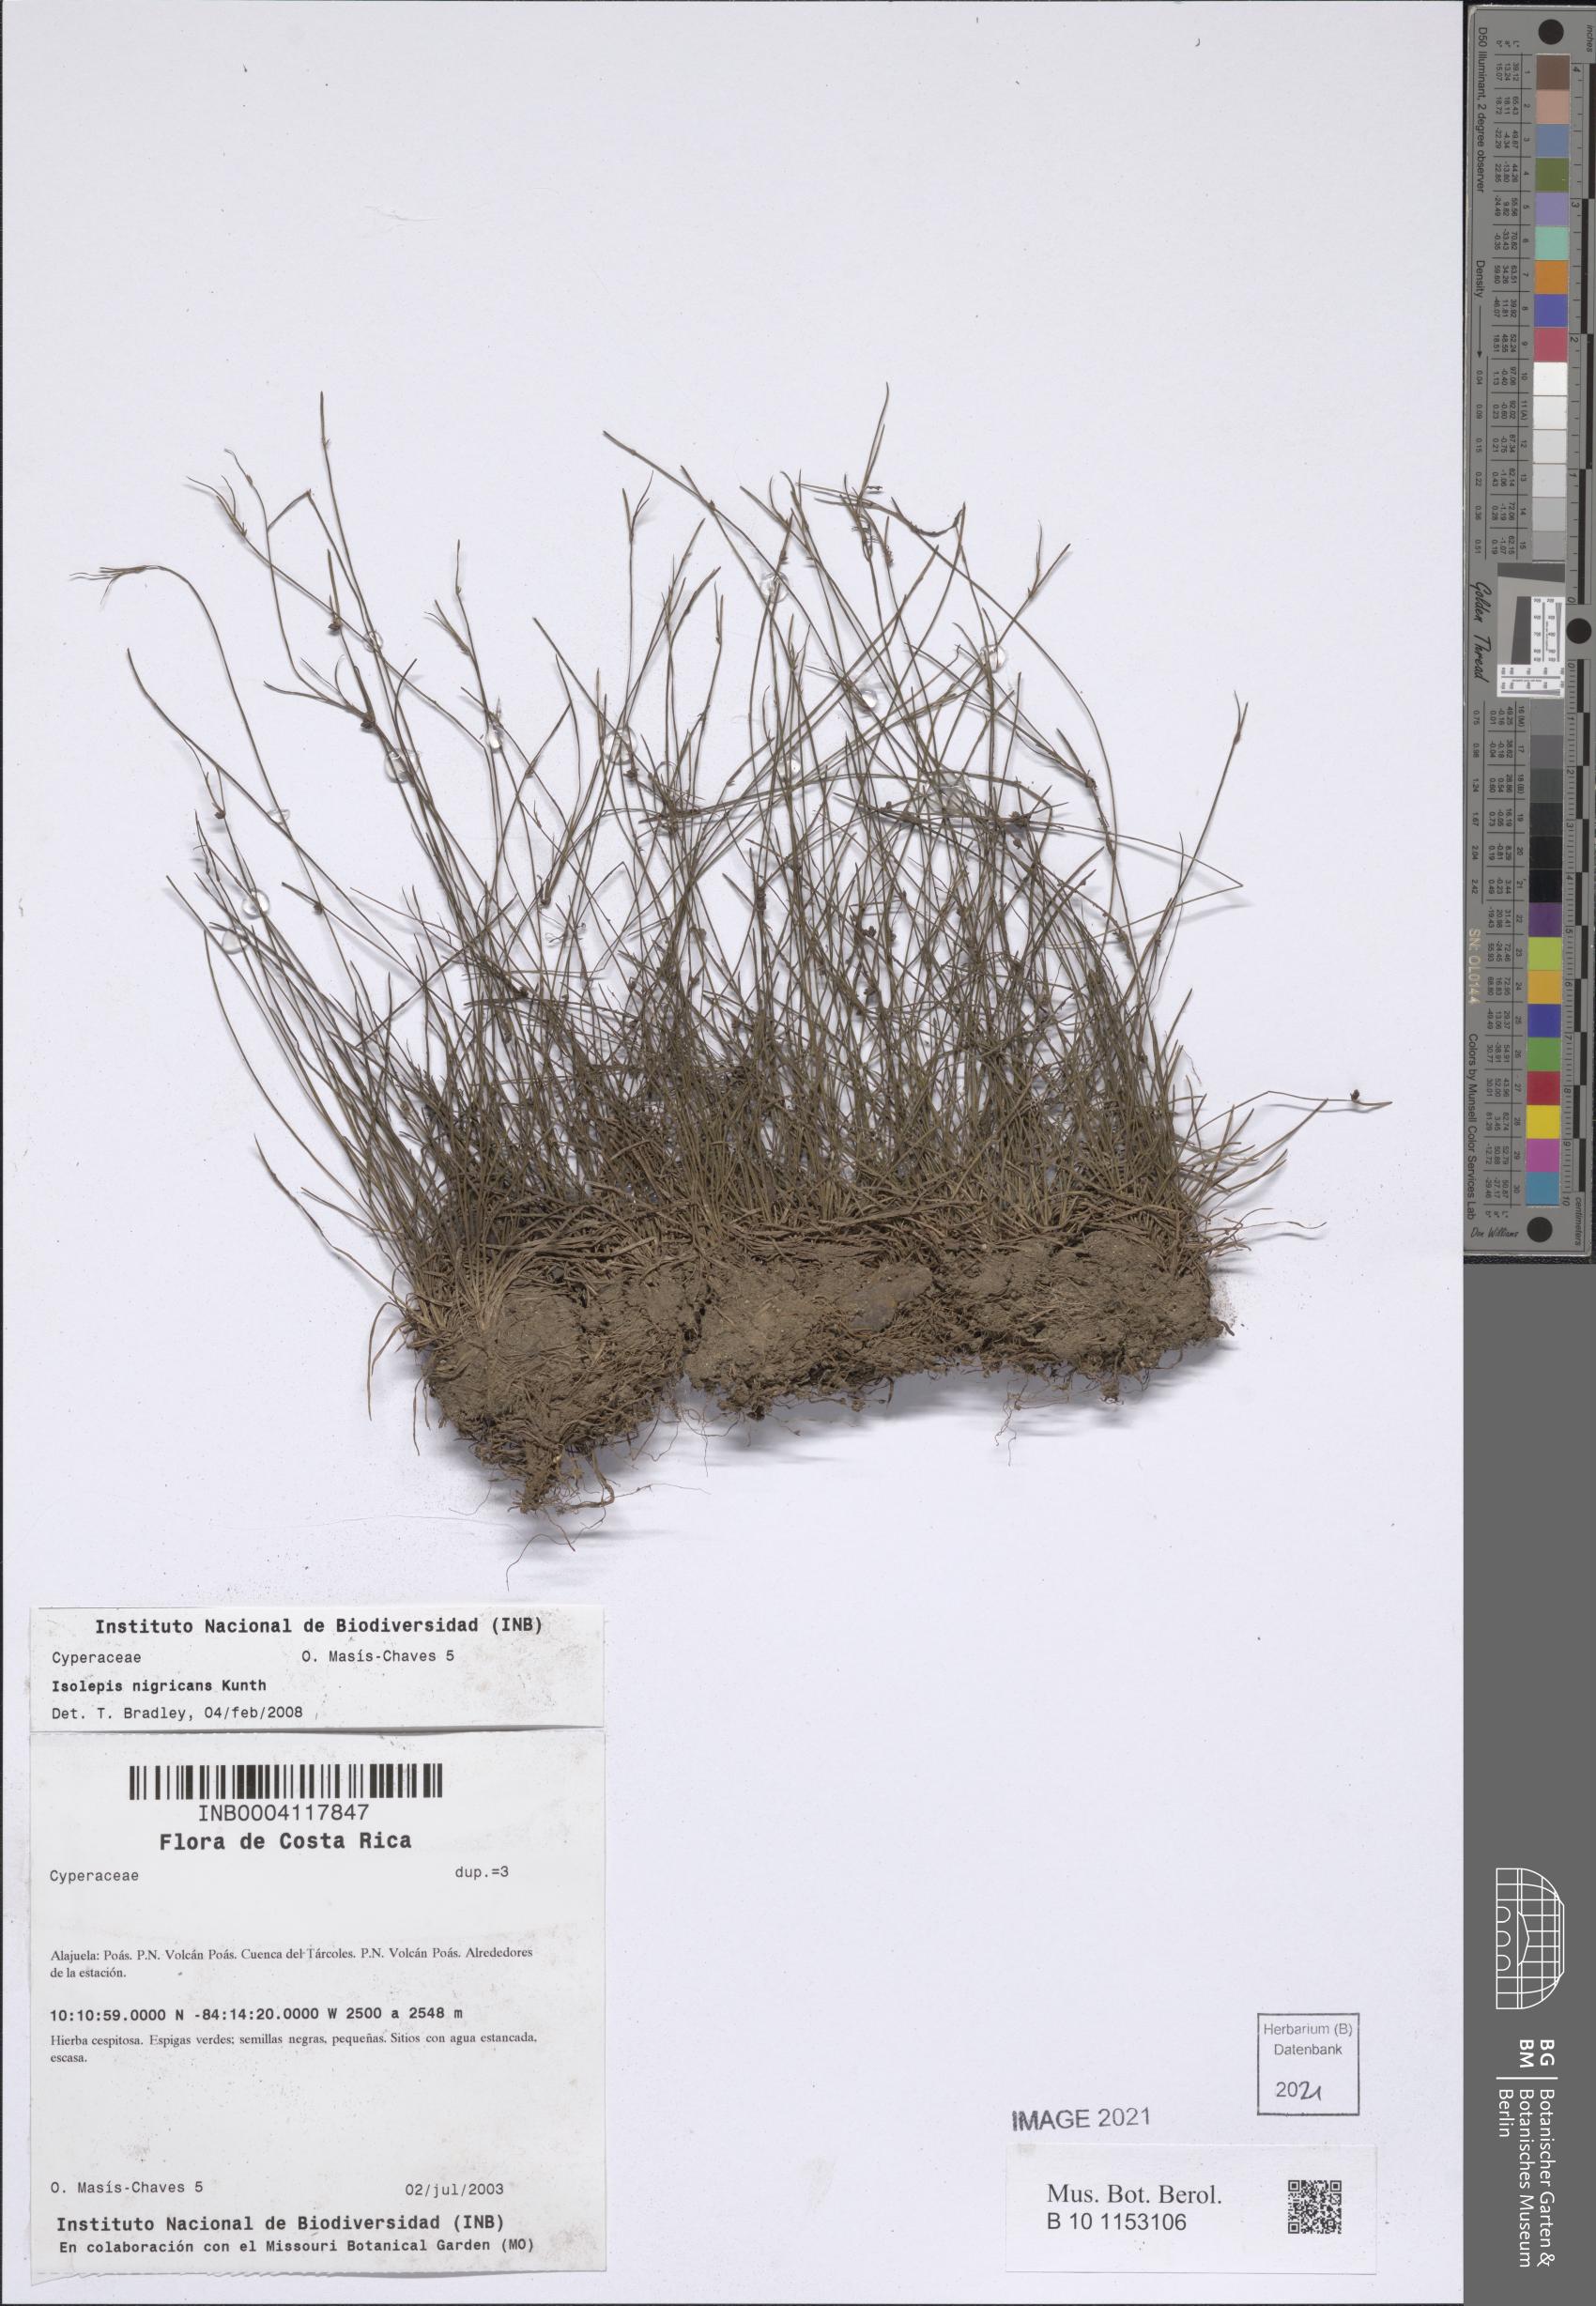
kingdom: Plantae
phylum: Tracheophyta
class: Liliopsida
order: Poales
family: Cyperaceae
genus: Isolepis
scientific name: Isolepis nigricans
